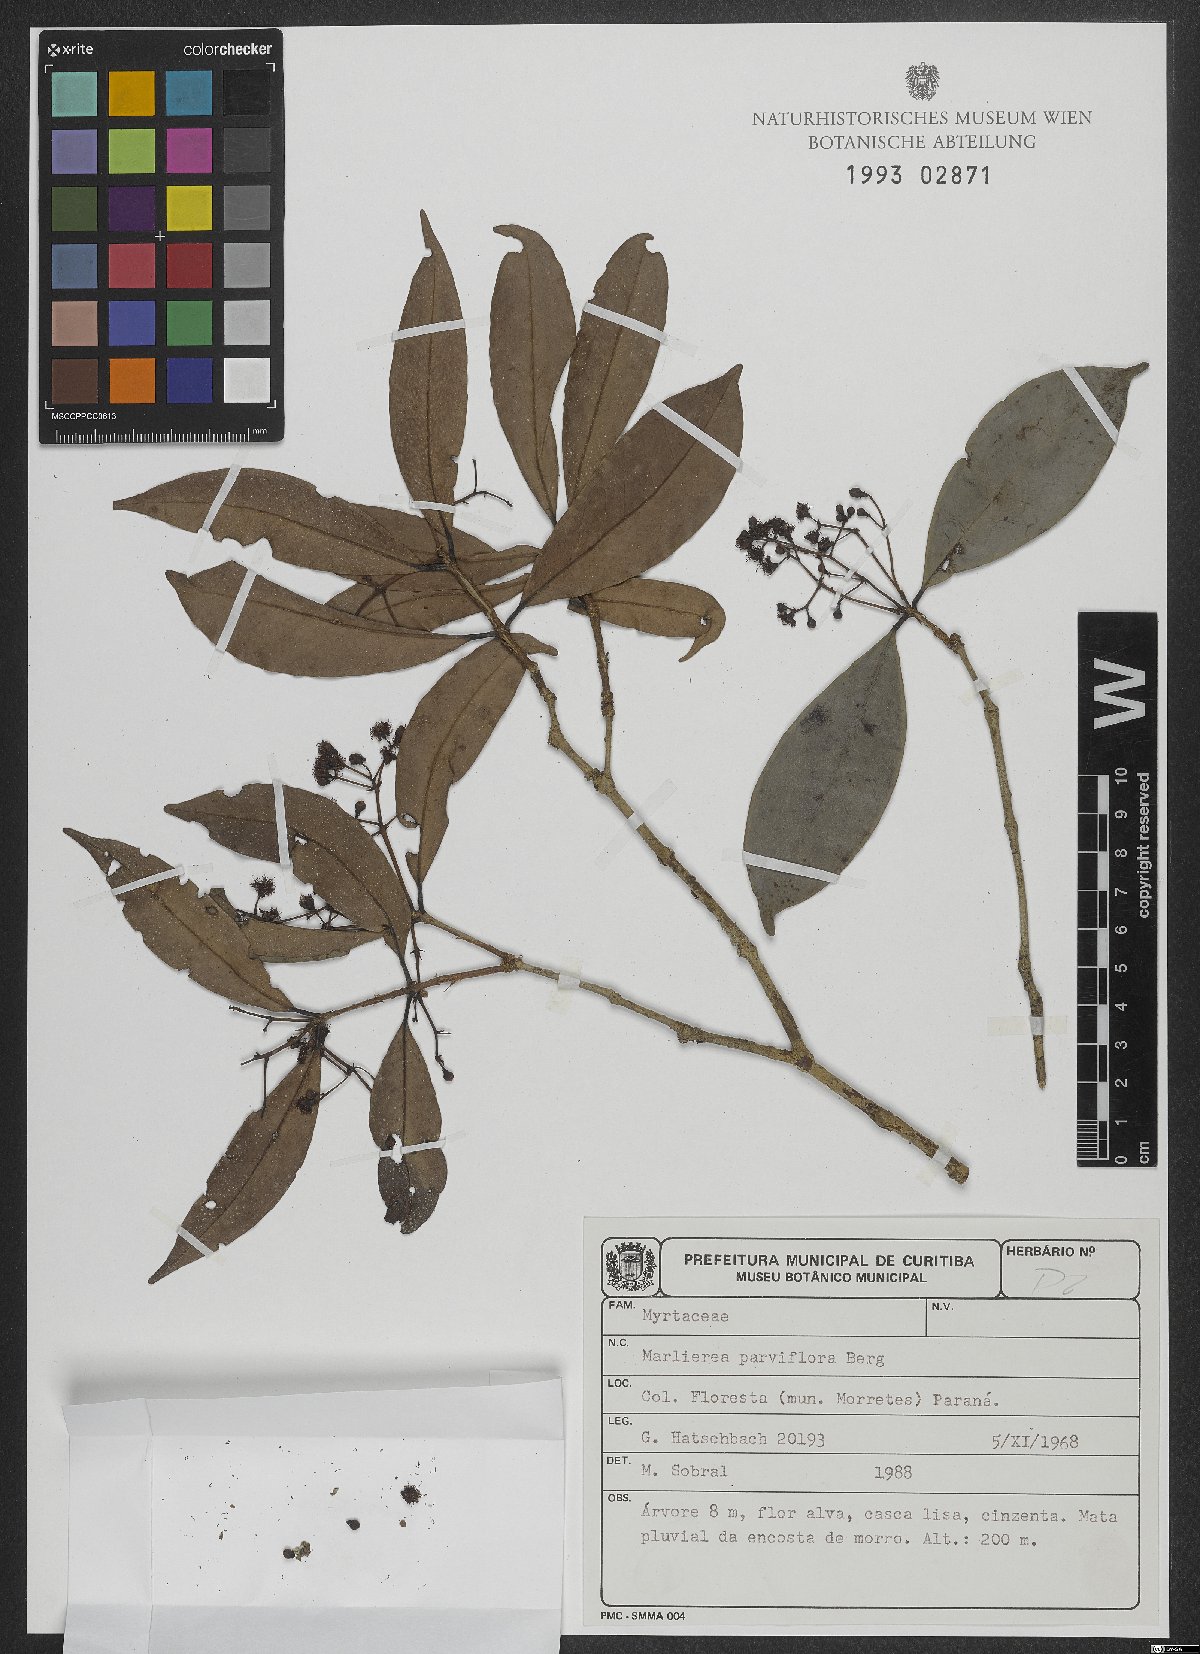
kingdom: Plantae
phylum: Tracheophyta
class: Magnoliopsida
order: Myrtales
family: Myrtaceae
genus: Myrcia
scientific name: Myrcia excoriata
